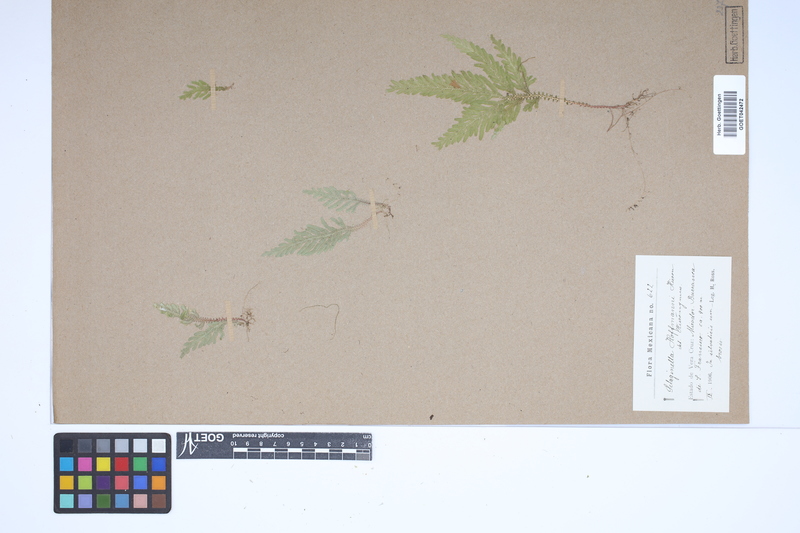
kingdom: Plantae
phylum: Tracheophyta
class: Lycopodiopsida
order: Selaginellales
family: Selaginellaceae
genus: Selaginella
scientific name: Selaginella hoffmannii
